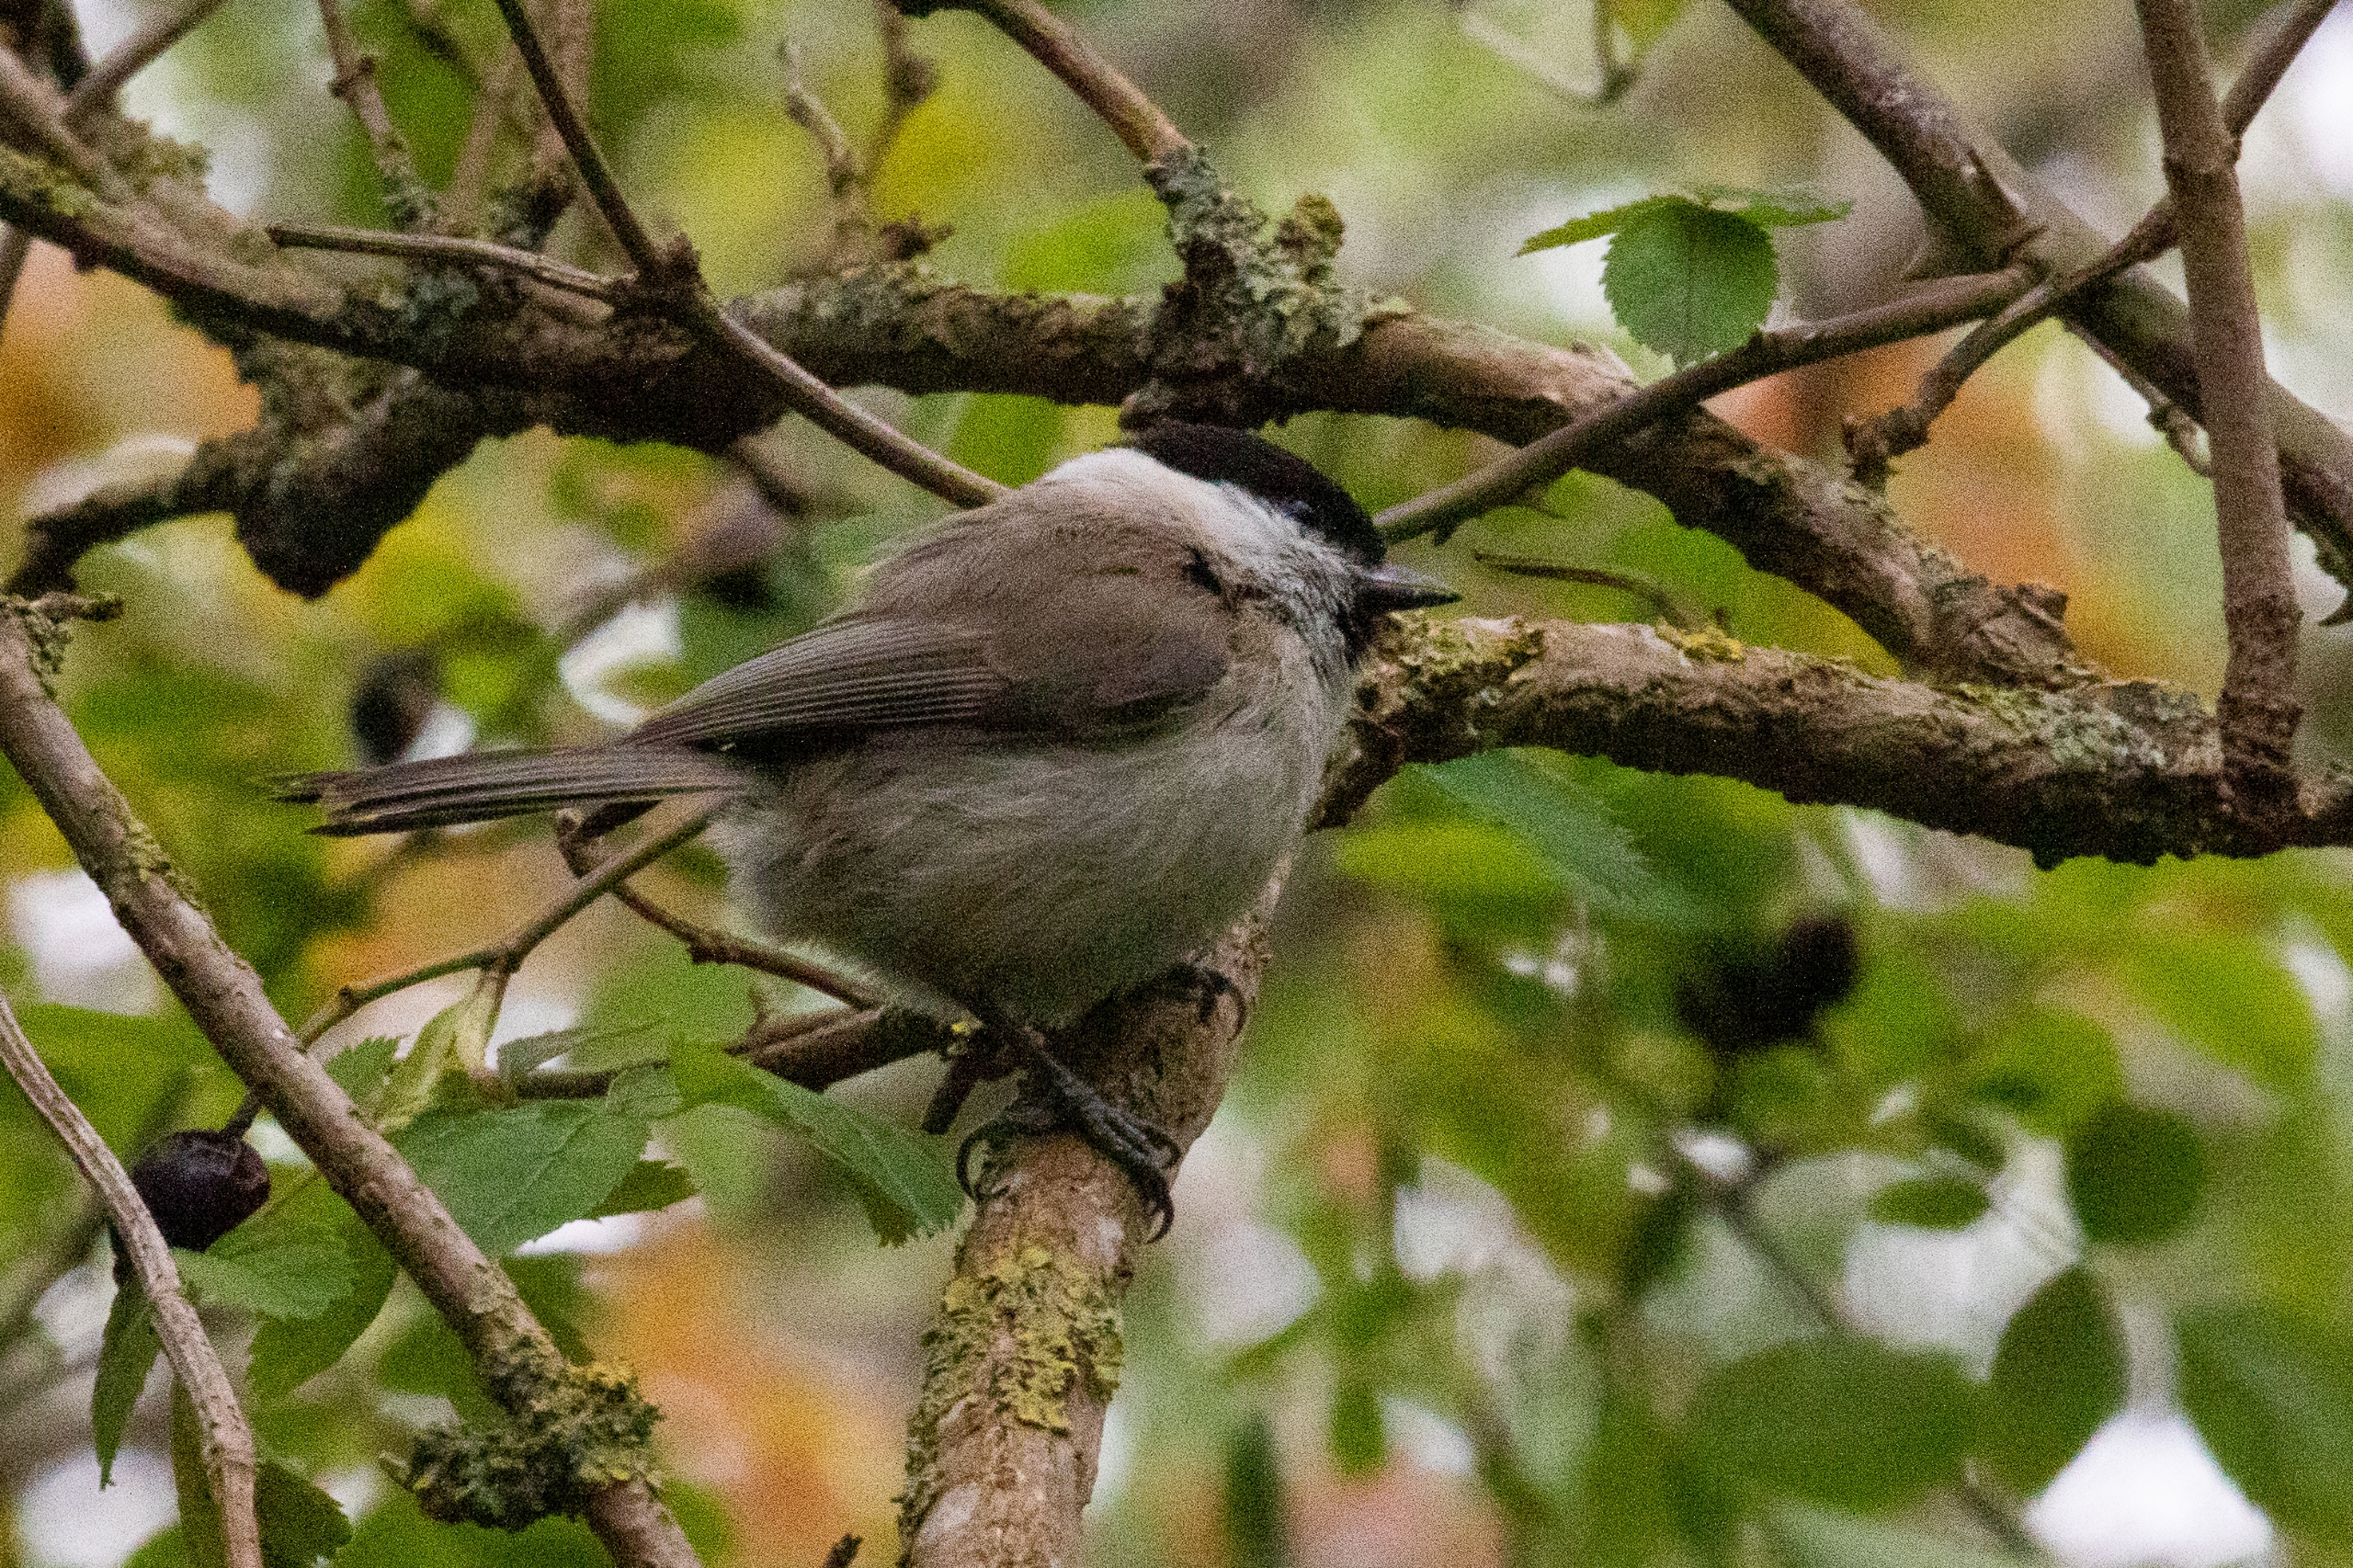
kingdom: Animalia
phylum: Chordata
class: Aves
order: Passeriformes
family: Paridae
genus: Poecile
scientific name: Poecile palustris
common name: Sumpmejse
